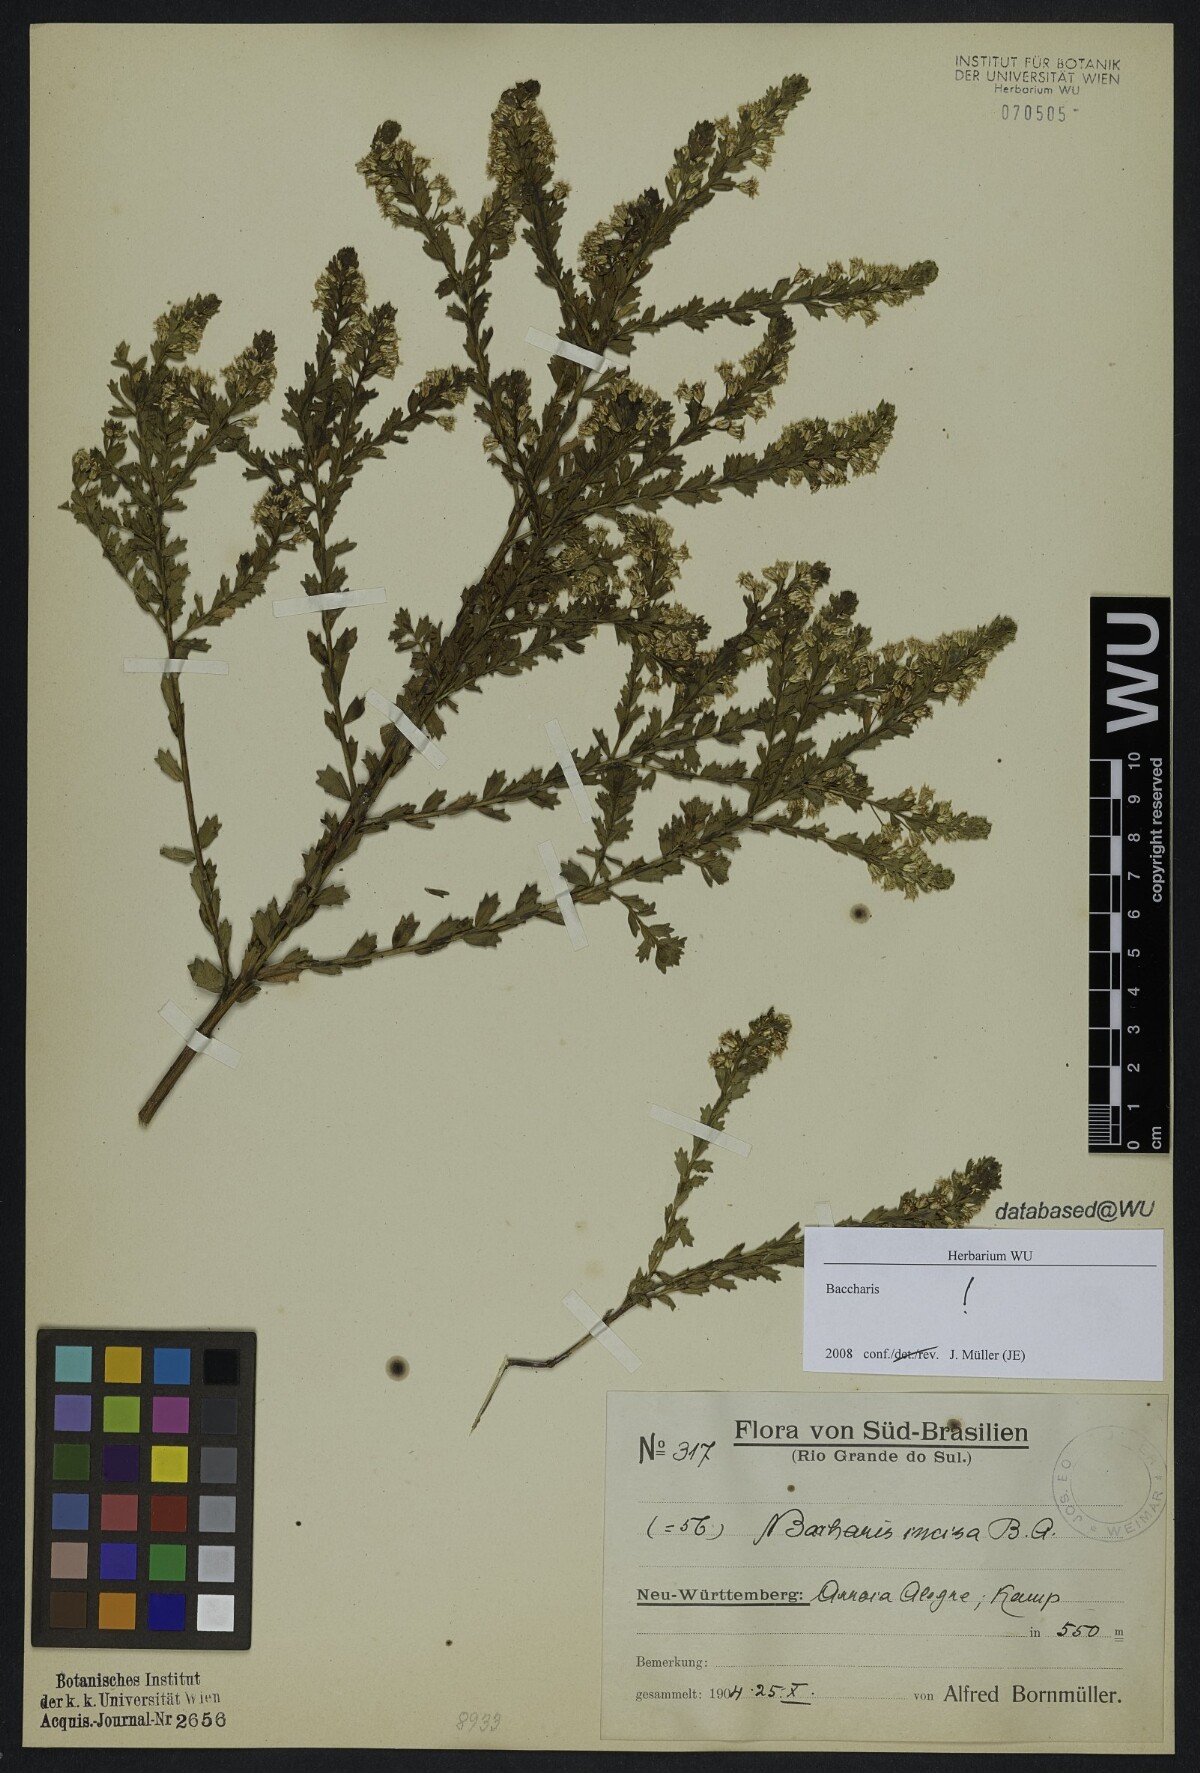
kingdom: Plantae
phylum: Tracheophyta
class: Magnoliopsida
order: Asterales
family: Asteraceae
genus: Baccharis
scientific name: Baccharis incisa
